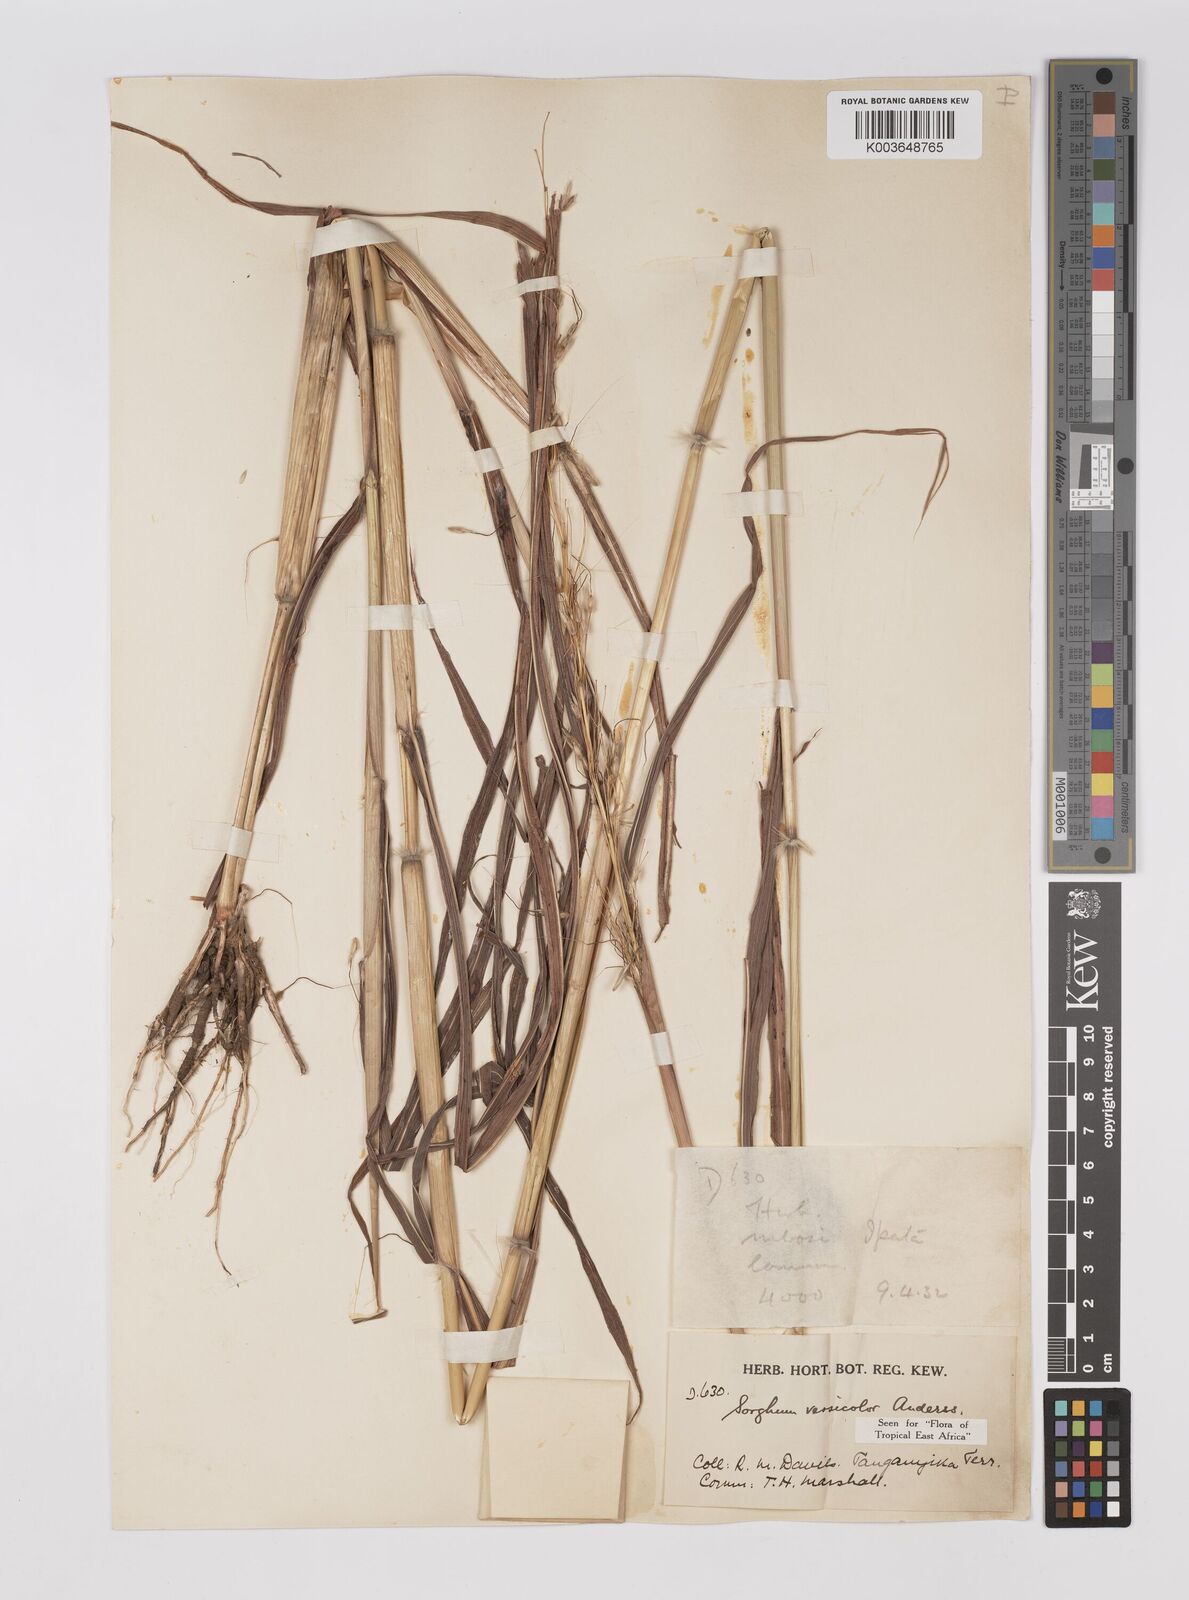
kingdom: Plantae
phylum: Tracheophyta
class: Liliopsida
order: Poales
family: Poaceae
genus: Sarga
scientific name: Sarga versicolor
